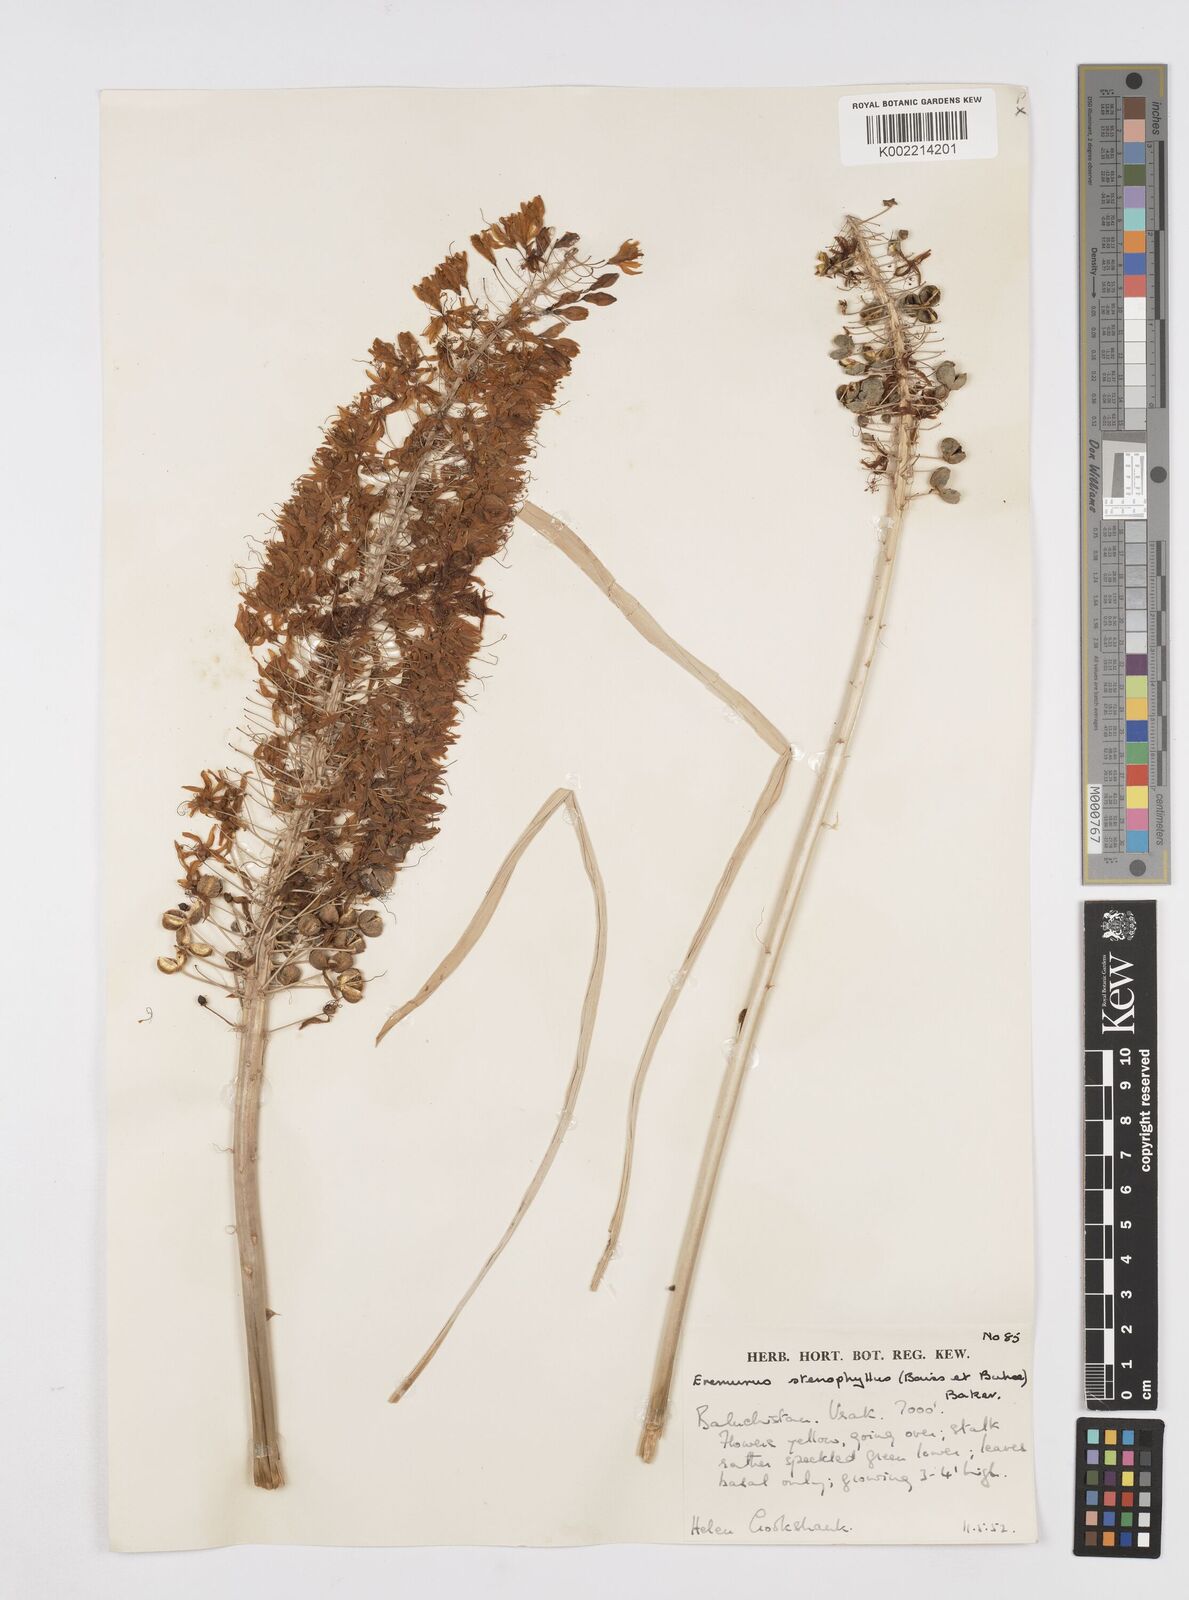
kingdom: Plantae
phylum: Tracheophyta
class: Liliopsida
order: Asparagales
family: Asphodelaceae
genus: Eremurus
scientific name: Eremurus stenophyllus
